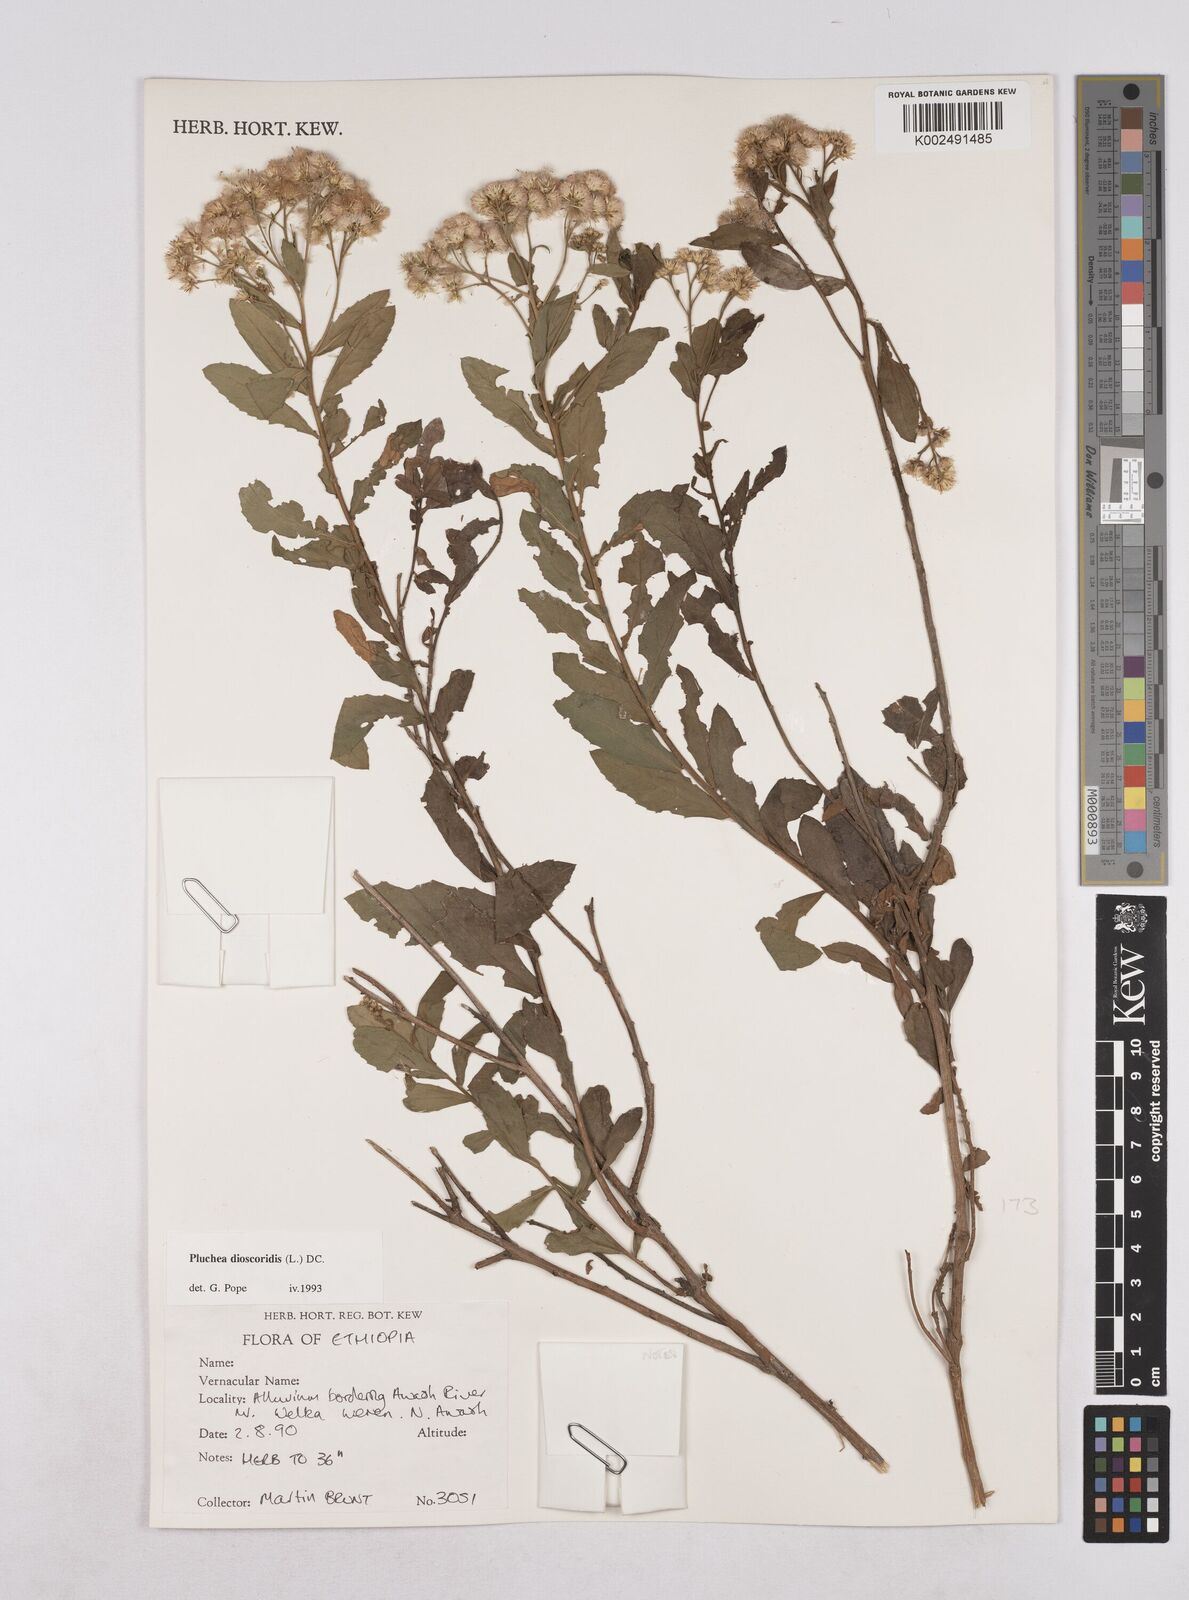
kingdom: Plantae
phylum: Tracheophyta
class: Magnoliopsida
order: Asterales
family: Asteraceae
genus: Pluchea
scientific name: Pluchea dioscoridis
